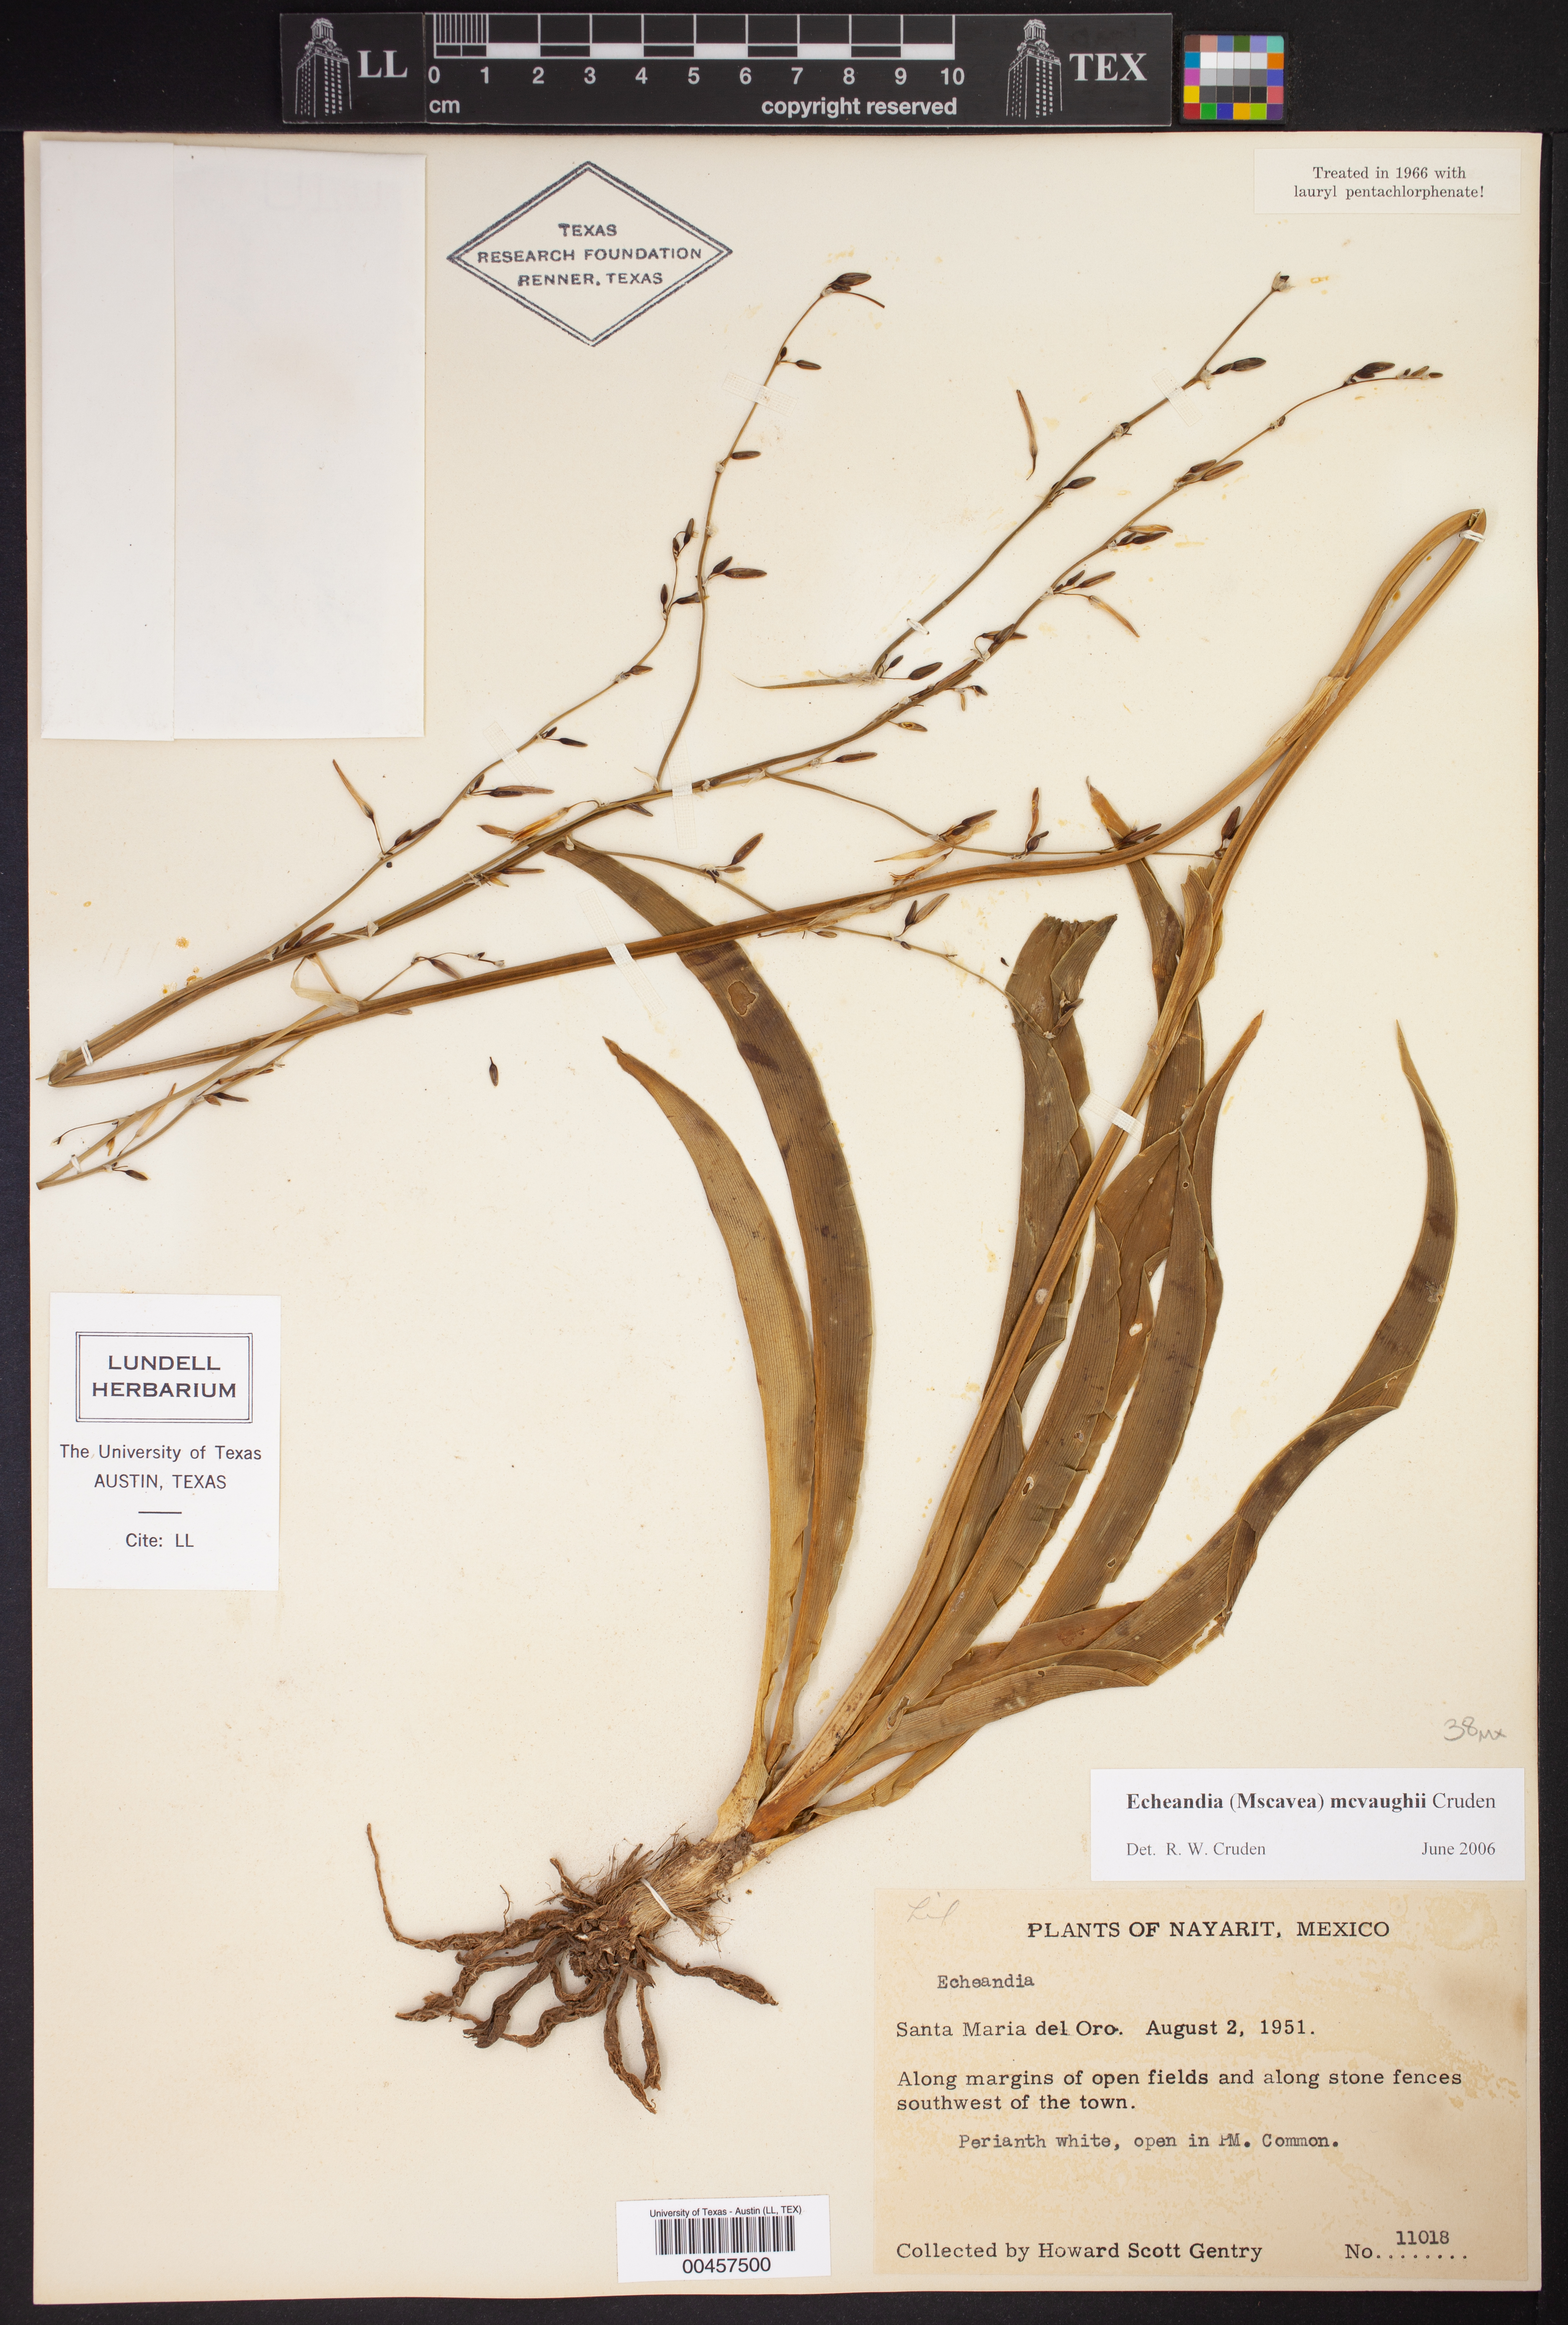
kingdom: Plantae
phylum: Tracheophyta
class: Liliopsida
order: Asparagales
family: Asparagaceae
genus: Echeandia
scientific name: Echeandia mcvaughii
